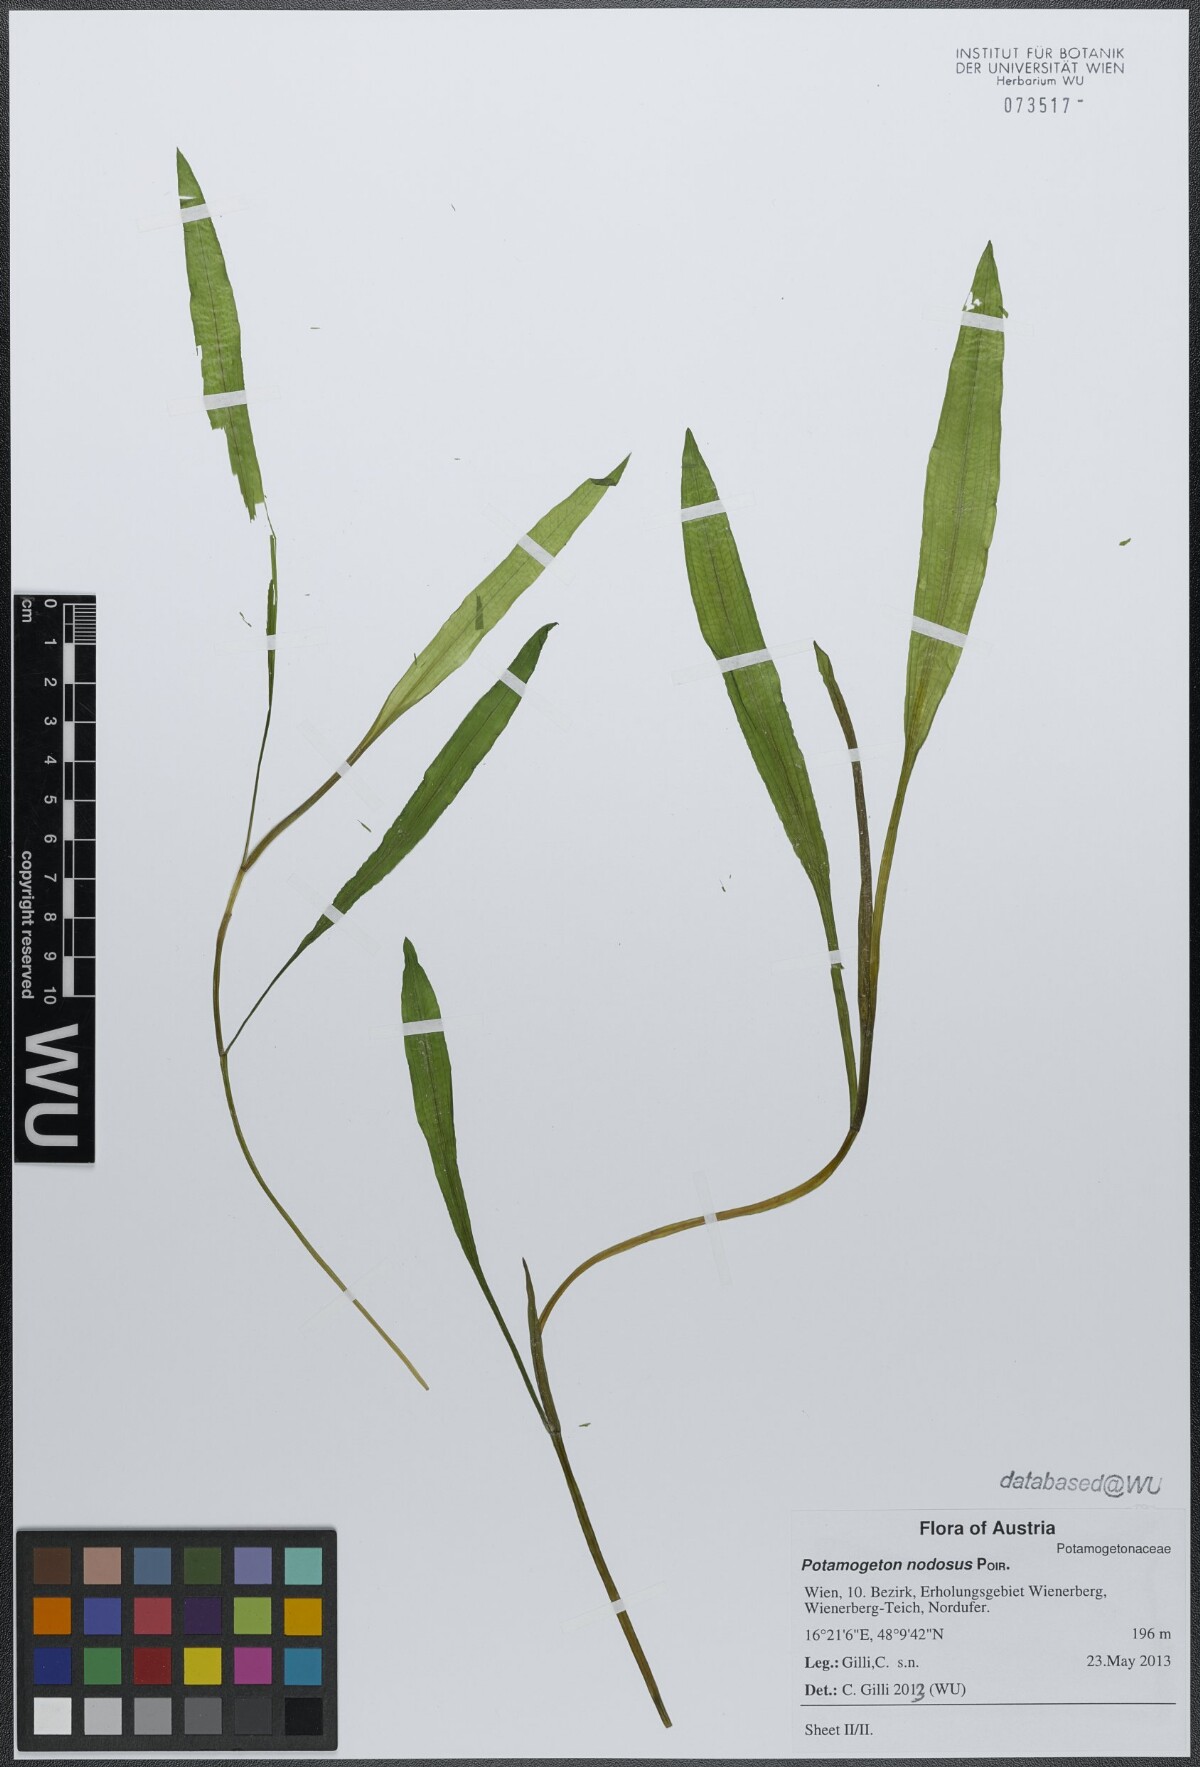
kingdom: Plantae
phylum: Tracheophyta
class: Liliopsida
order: Alismatales
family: Potamogetonaceae
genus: Potamogeton
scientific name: Potamogeton nodosus
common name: Loddon pondweed
